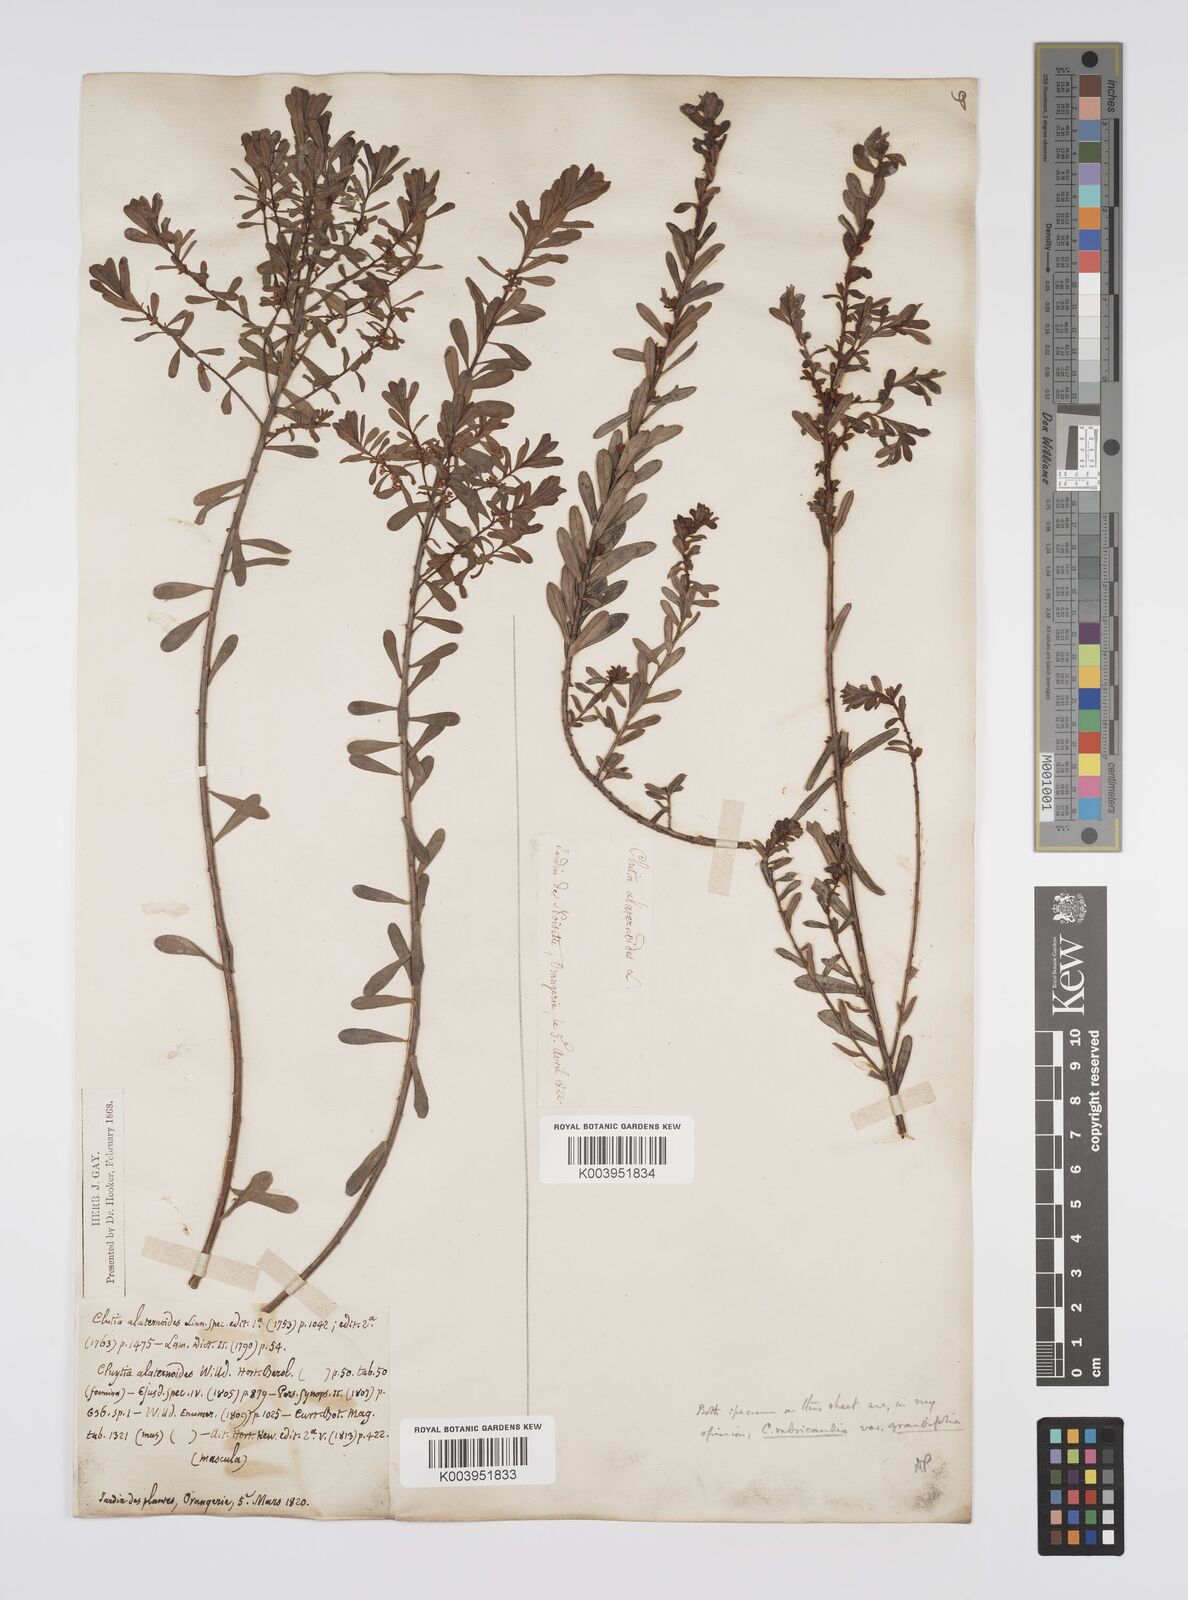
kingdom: Plantae
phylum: Tracheophyta
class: Magnoliopsida
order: Malpighiales
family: Peraceae
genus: Clutia
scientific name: Clutia rubricaulis
